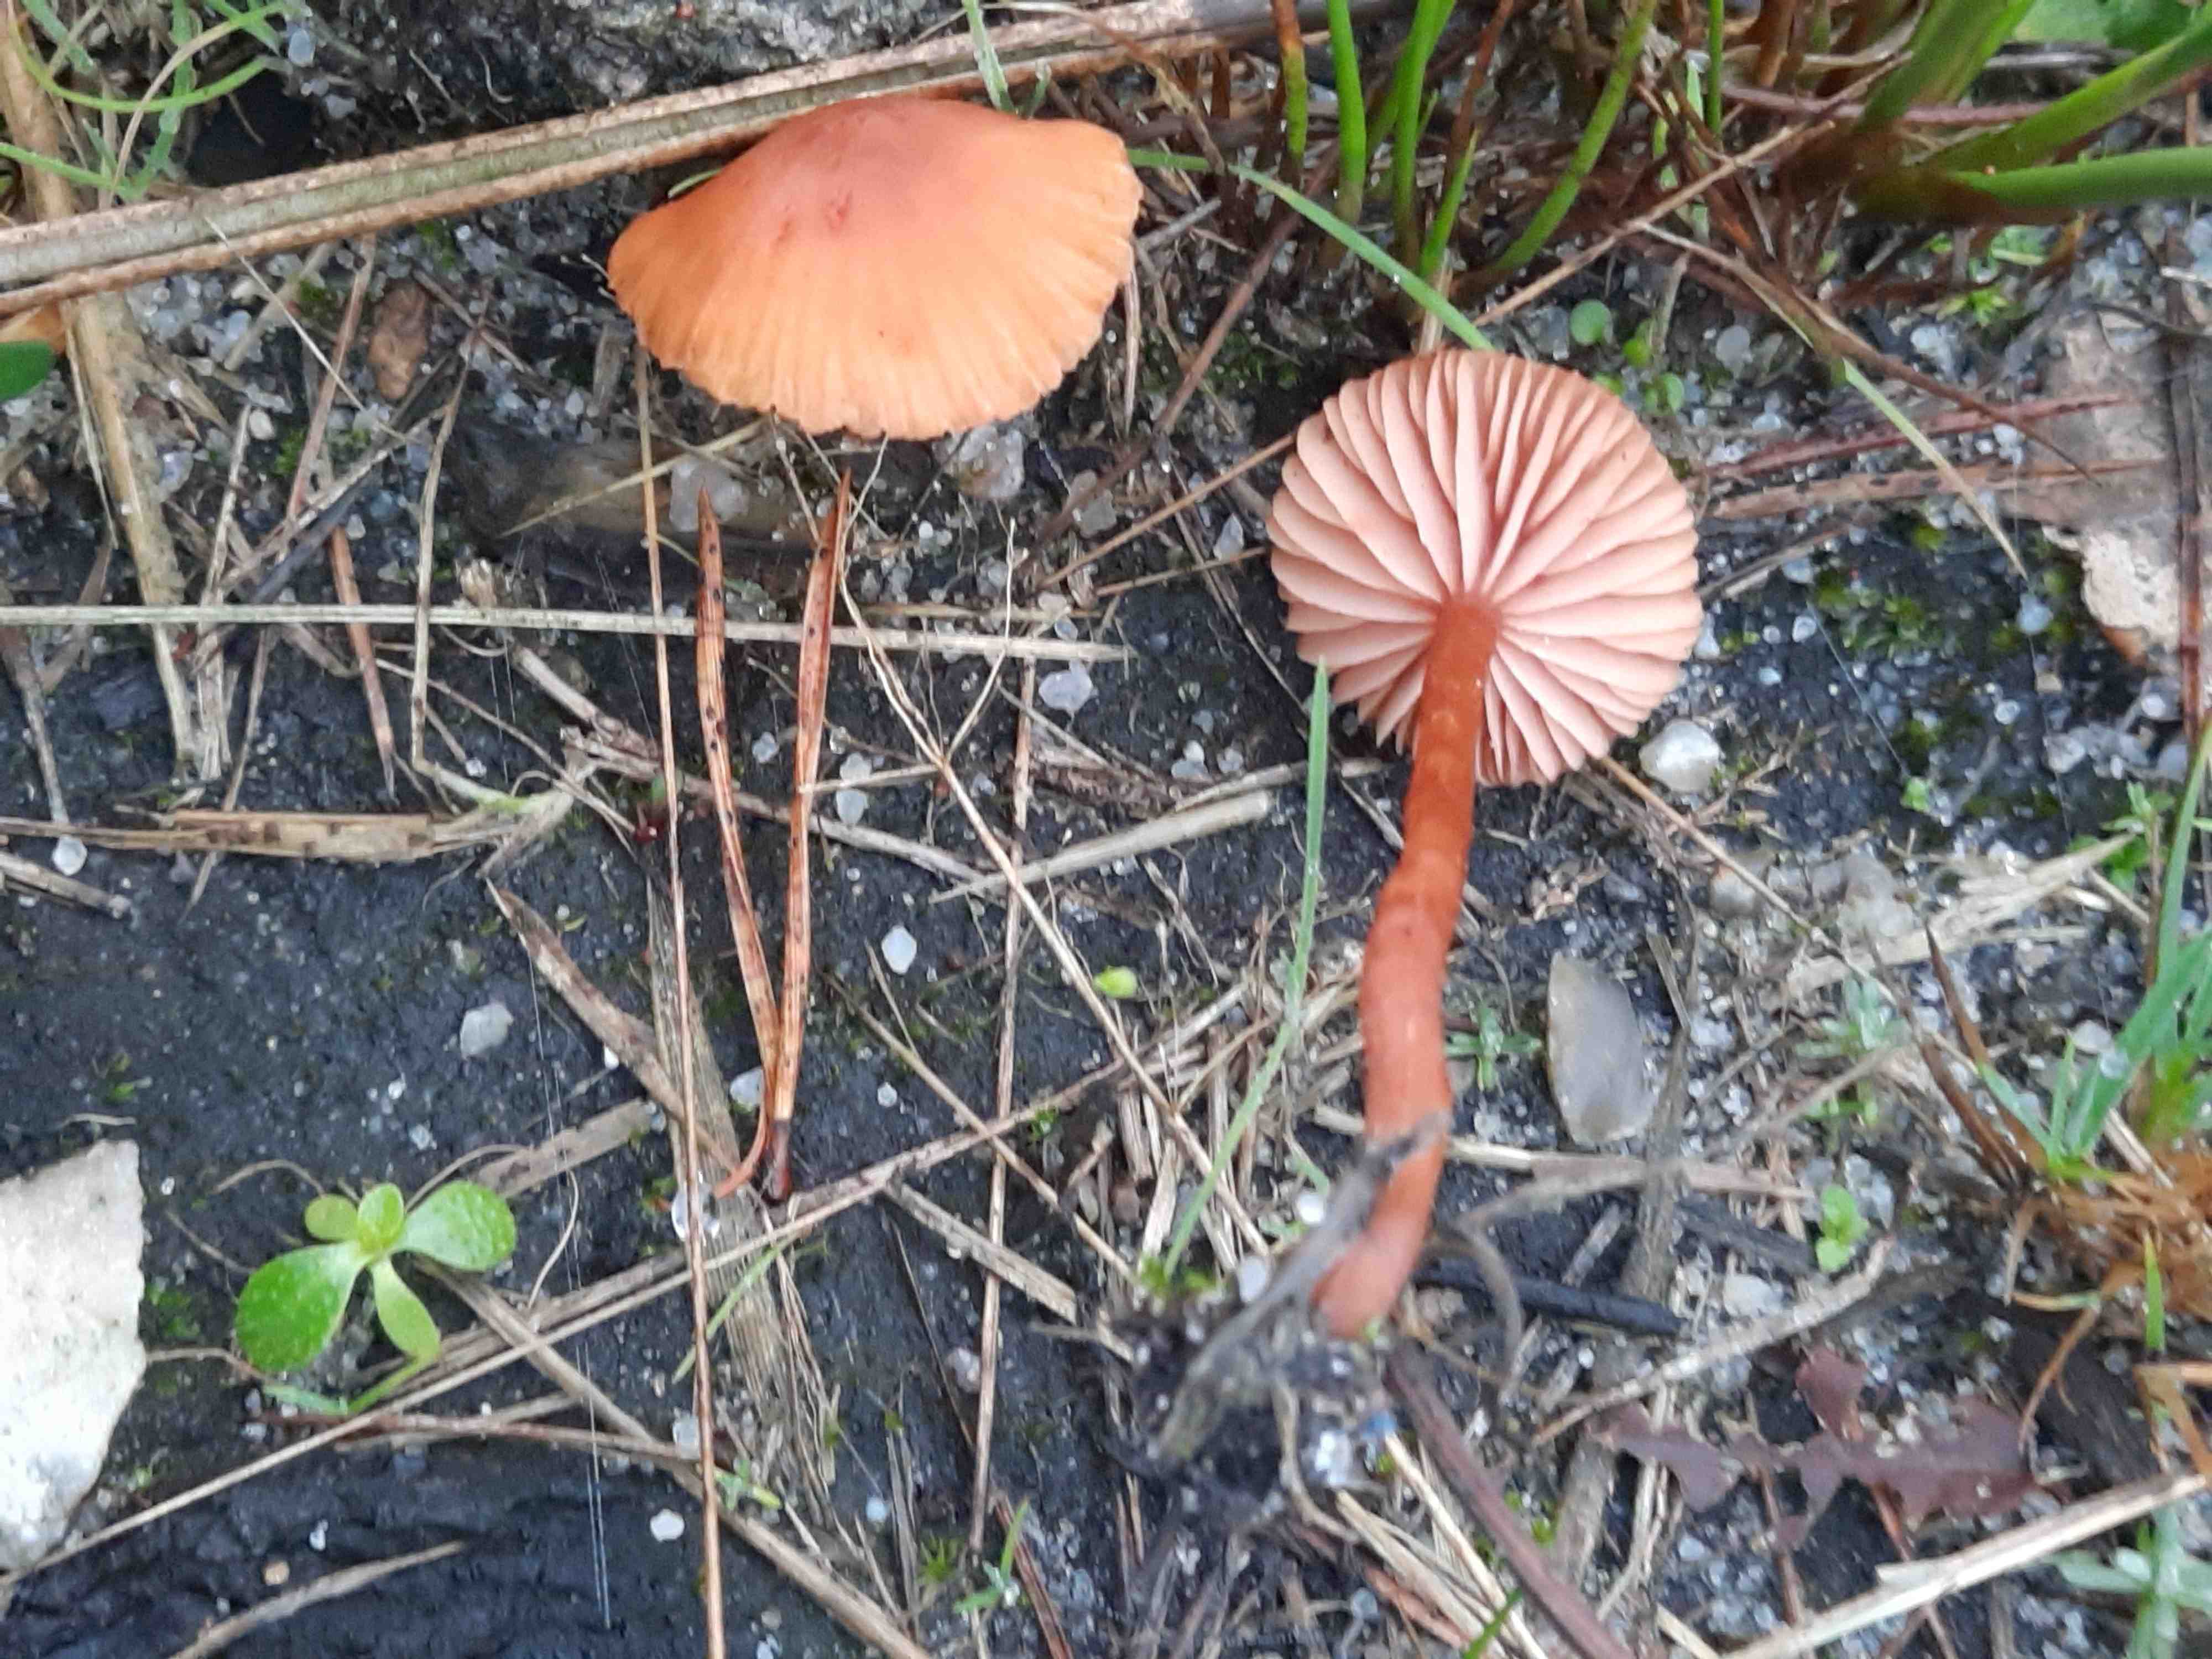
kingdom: Fungi
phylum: Basidiomycota
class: Agaricomycetes
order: Agaricales
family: Hydnangiaceae
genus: Laccaria
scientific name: Laccaria laccata
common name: rød ametysthat
